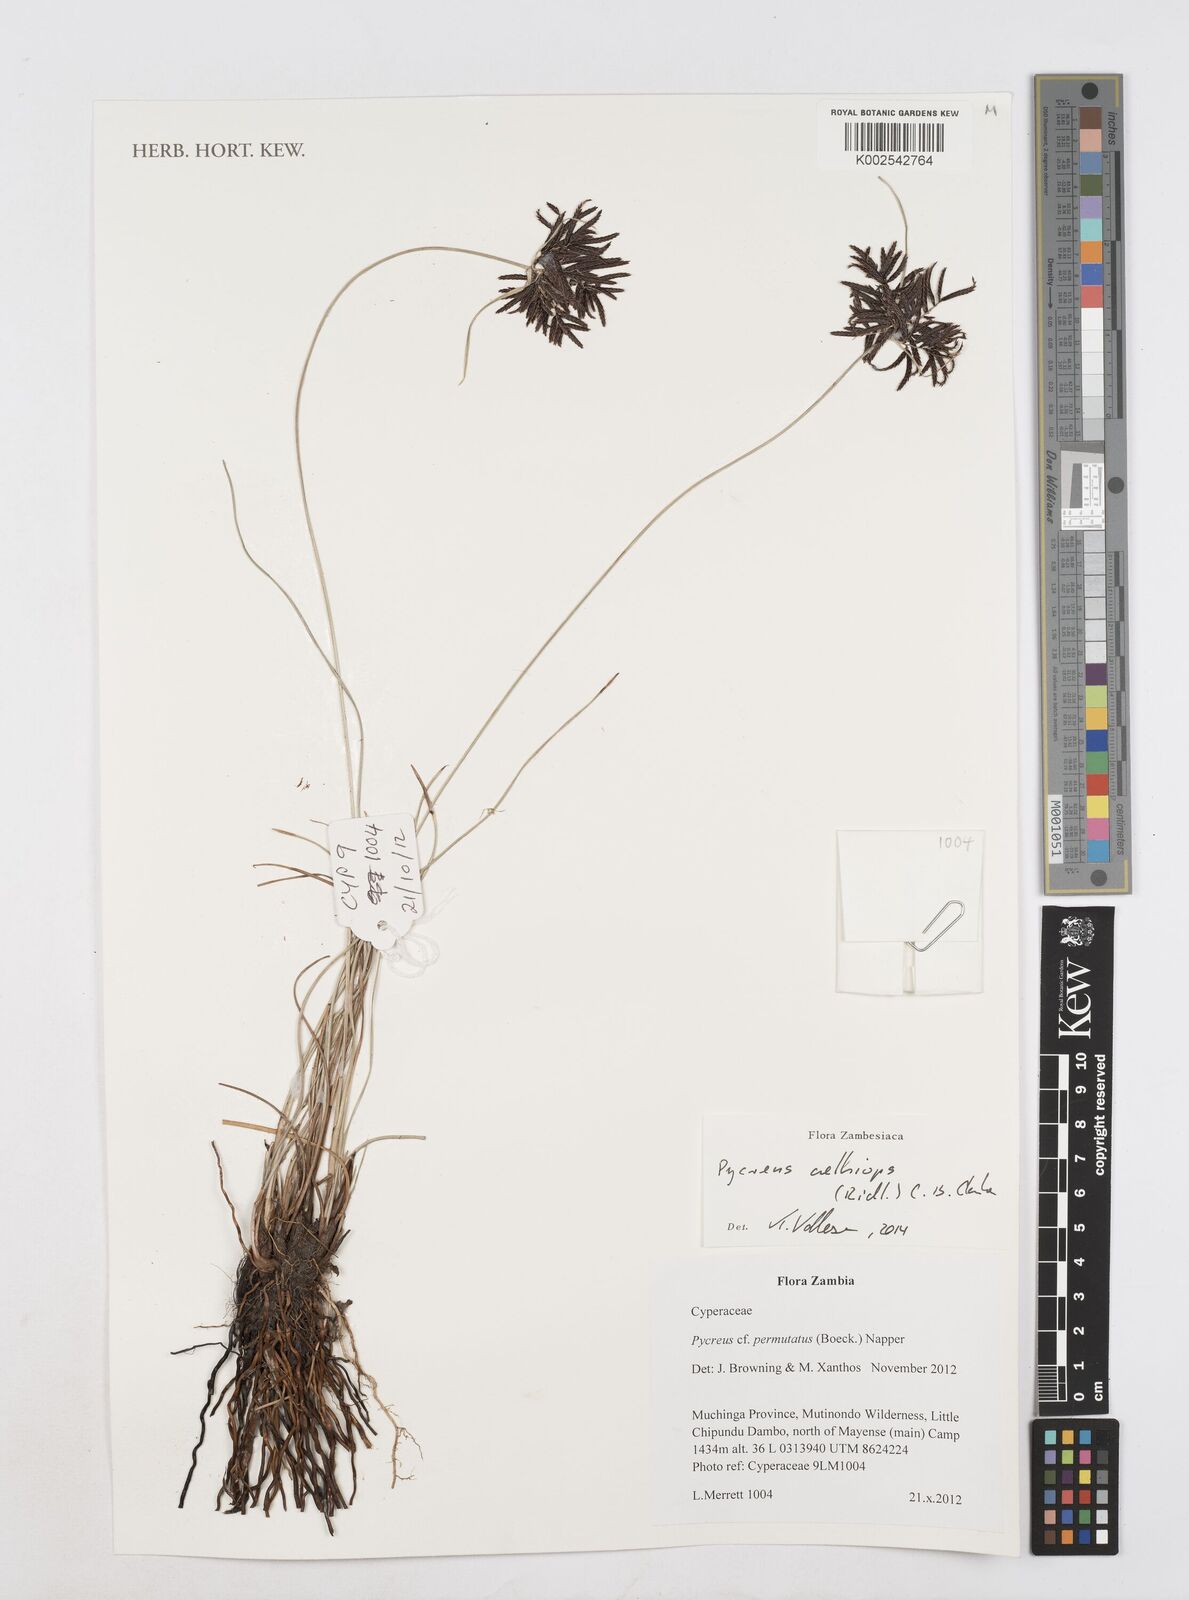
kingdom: Plantae
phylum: Tracheophyta
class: Liliopsida
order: Poales
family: Cyperaceae
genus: Cyperus
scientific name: Cyperus aethiops
